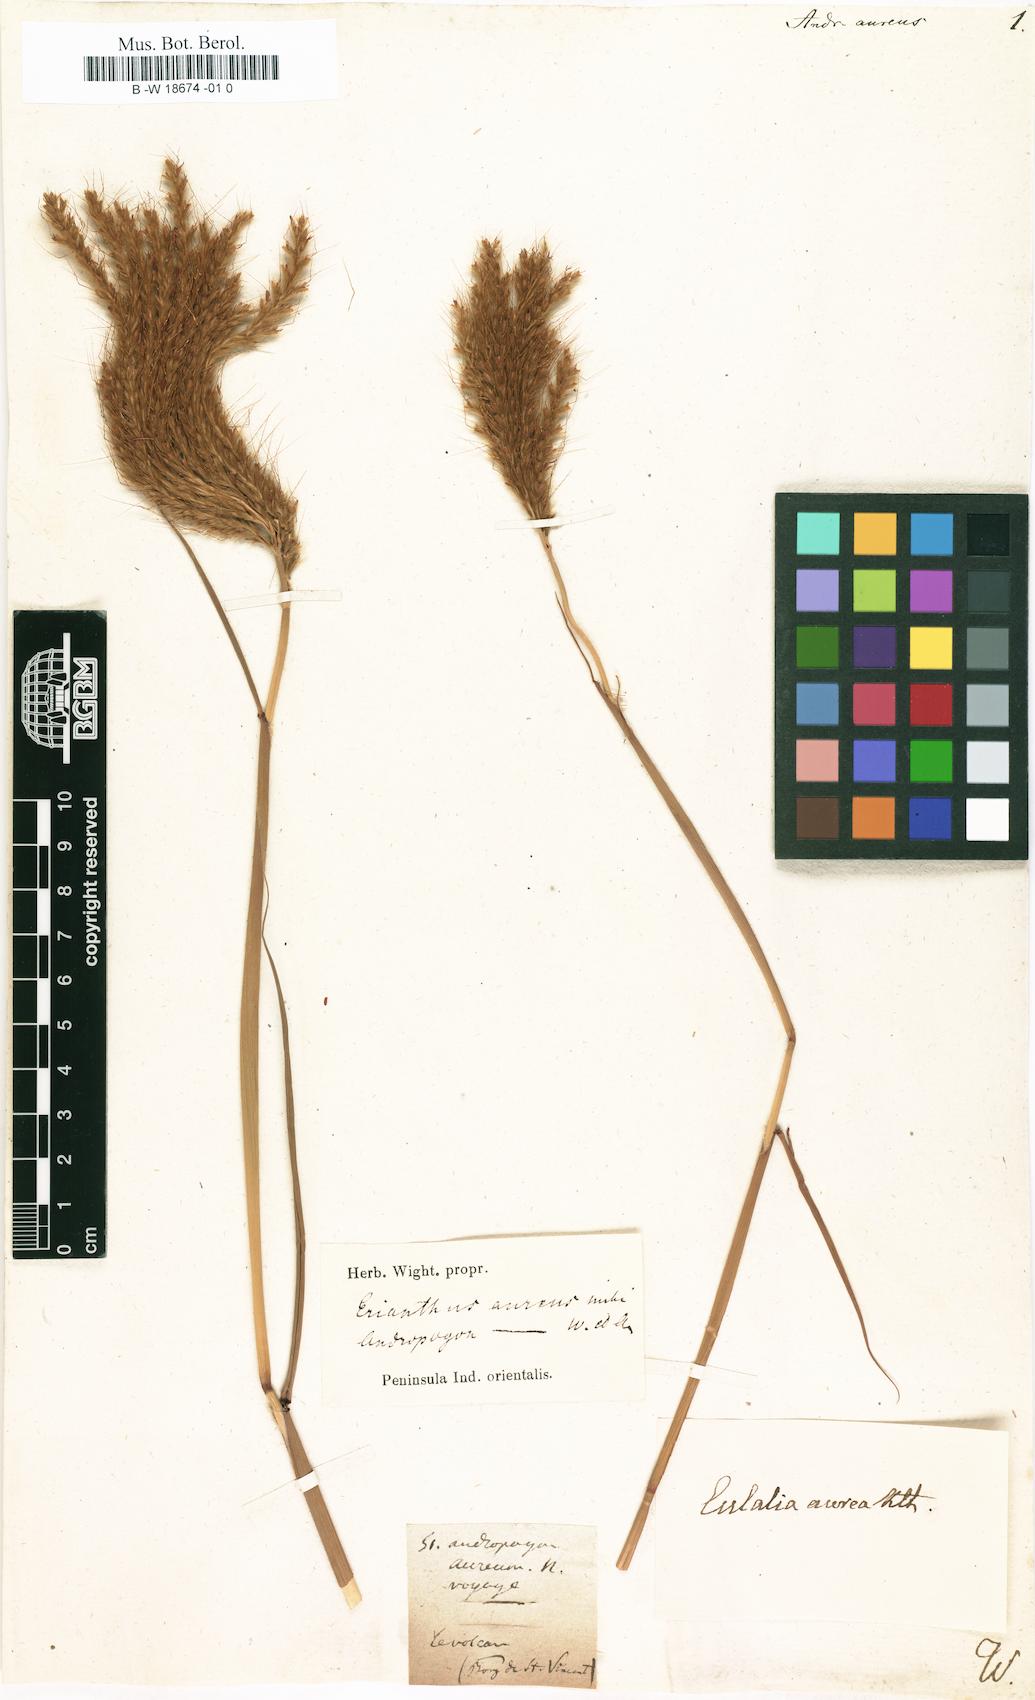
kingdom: Plantae
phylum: Tracheophyta
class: Liliopsida
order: Poales
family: Poaceae
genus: Eulalia
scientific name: Eulalia aurea
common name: Silky browntop
